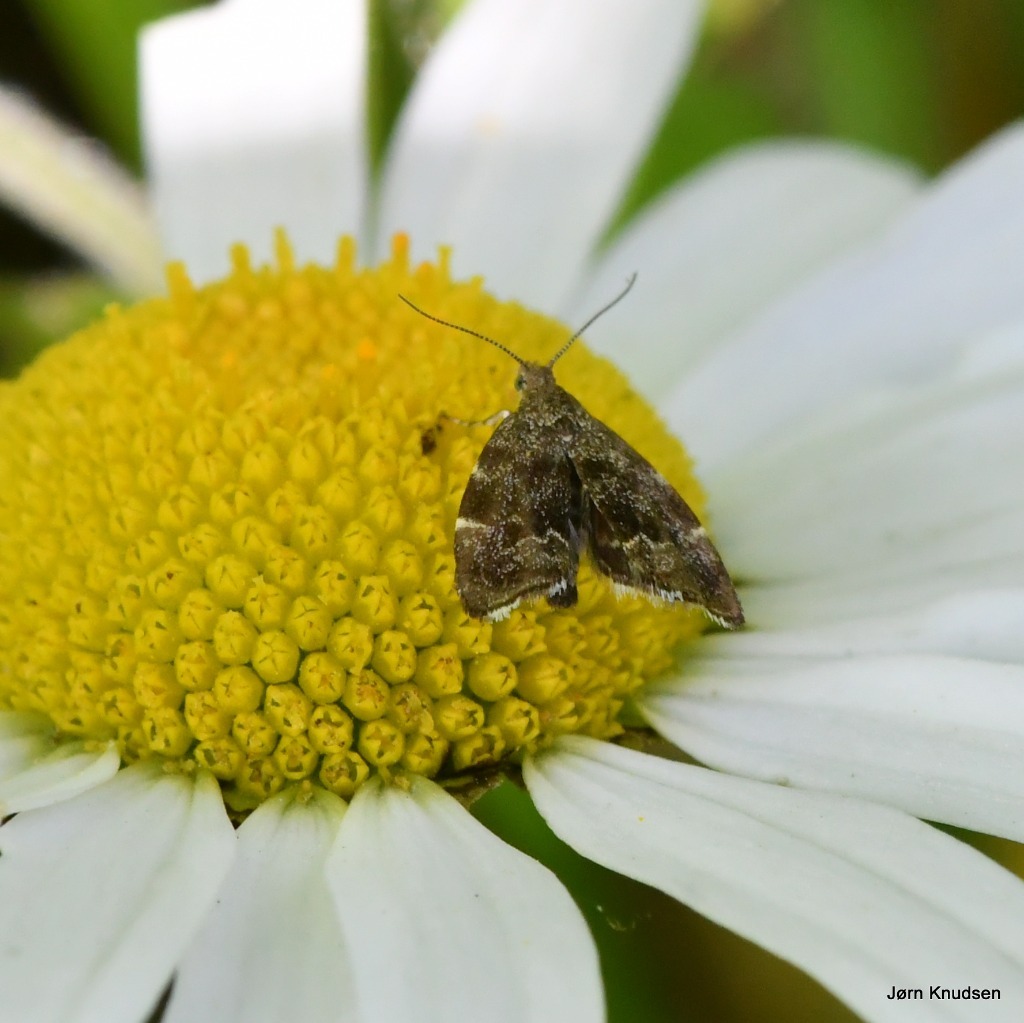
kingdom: Animalia
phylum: Arthropoda
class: Insecta
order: Lepidoptera
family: Choreutidae
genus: Anthophila
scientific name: Anthophila fabriciana
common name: Bredvinget nældevikler
